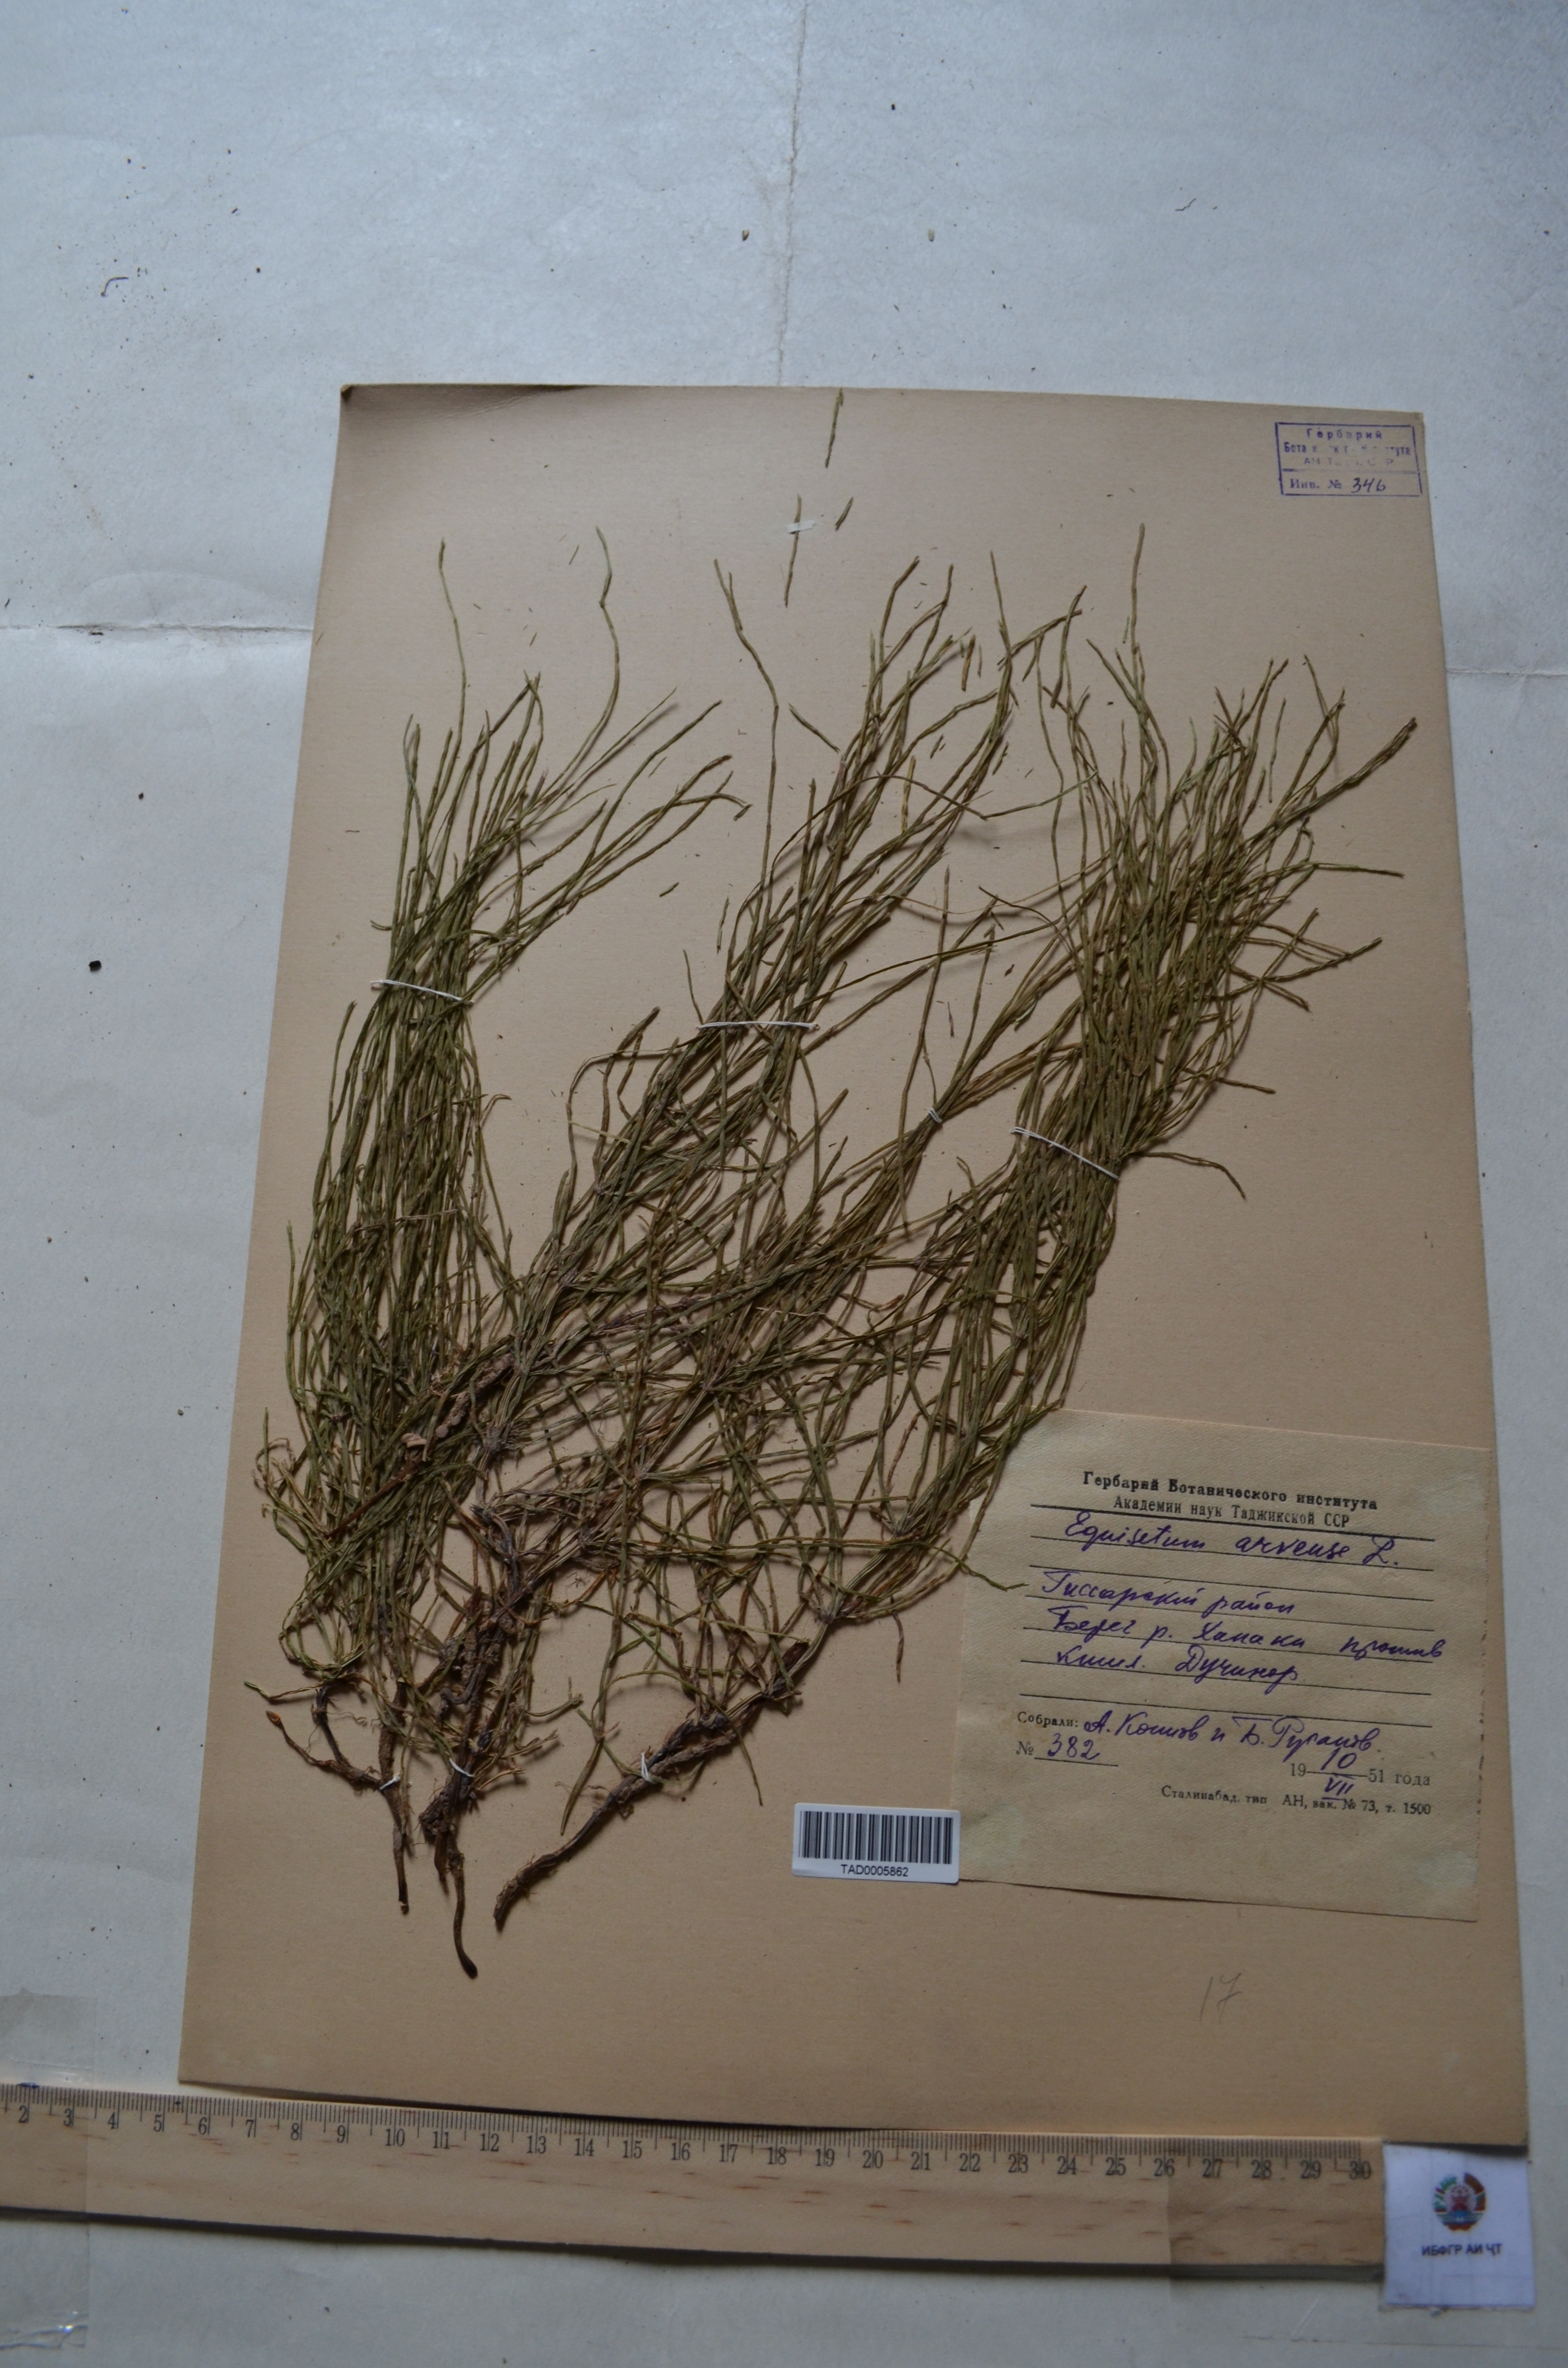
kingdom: Plantae
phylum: Tracheophyta
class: Polypodiopsida
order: Equisetales
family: Equisetaceae
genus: Equisetum
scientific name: Equisetum arvense
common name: Field horsetail
